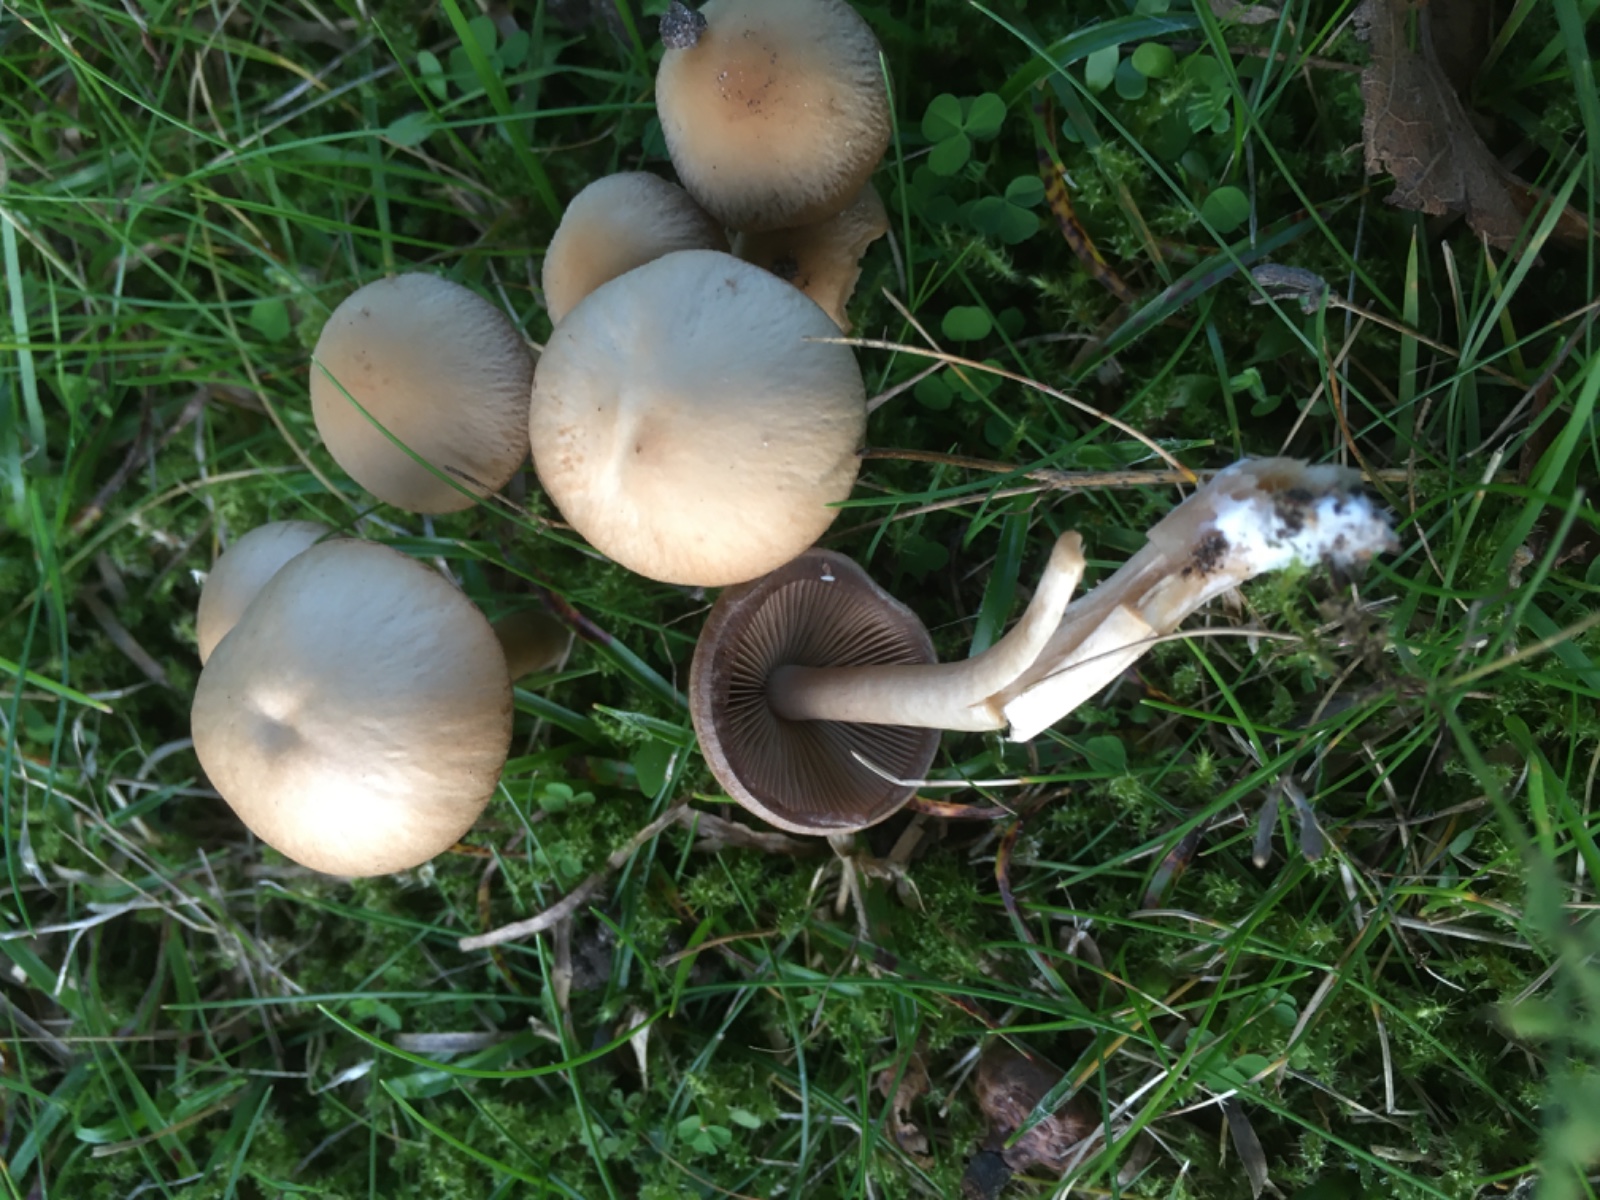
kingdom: Fungi
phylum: Basidiomycota
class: Agaricomycetes
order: Agaricales
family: Psathyrellaceae
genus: Psathyrella
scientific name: Psathyrella piluliformis
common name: lysstokket mørkhat
